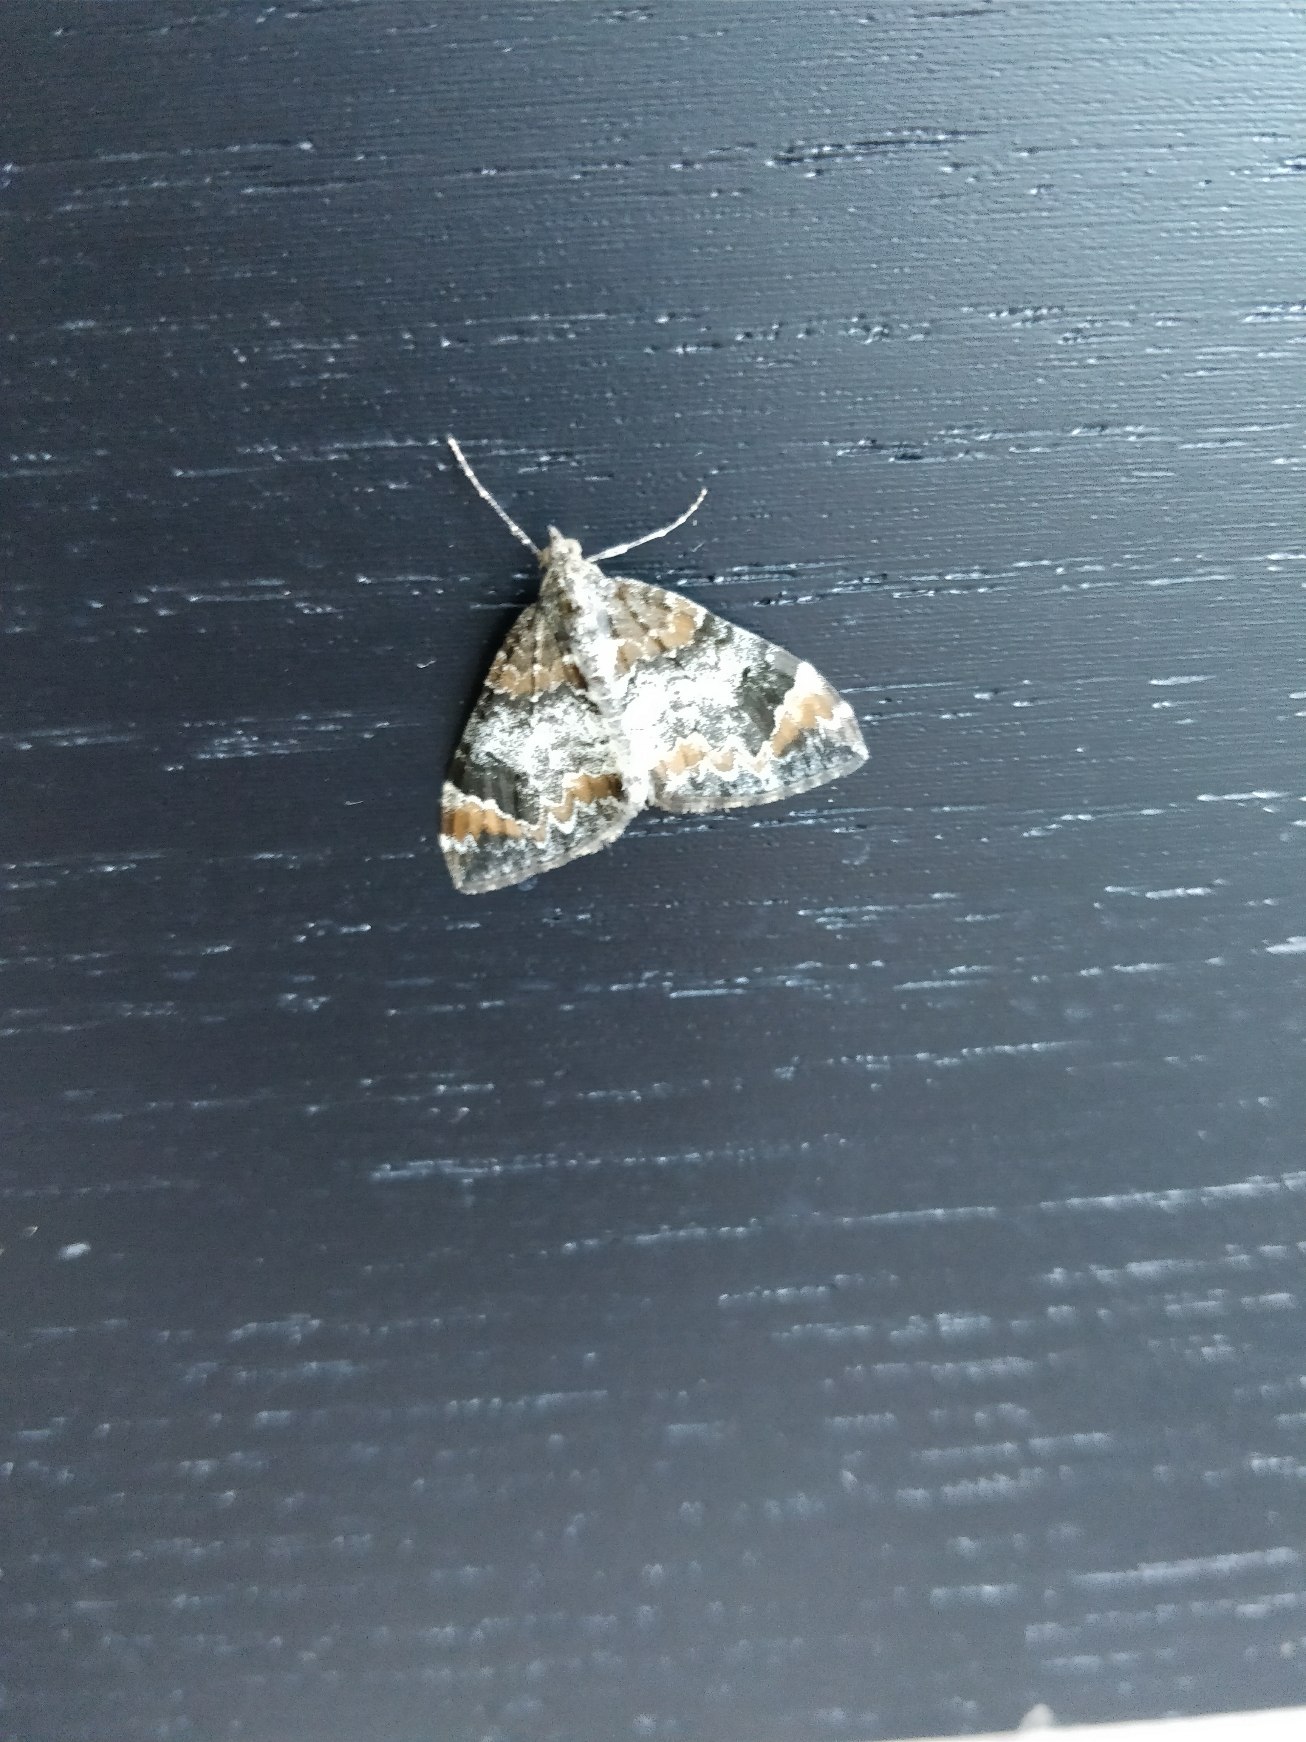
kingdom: Animalia
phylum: Arthropoda
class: Insecta
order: Lepidoptera
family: Geometridae
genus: Dysstroma
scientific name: Dysstroma citrata
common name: Spidsvinget bladmåler
